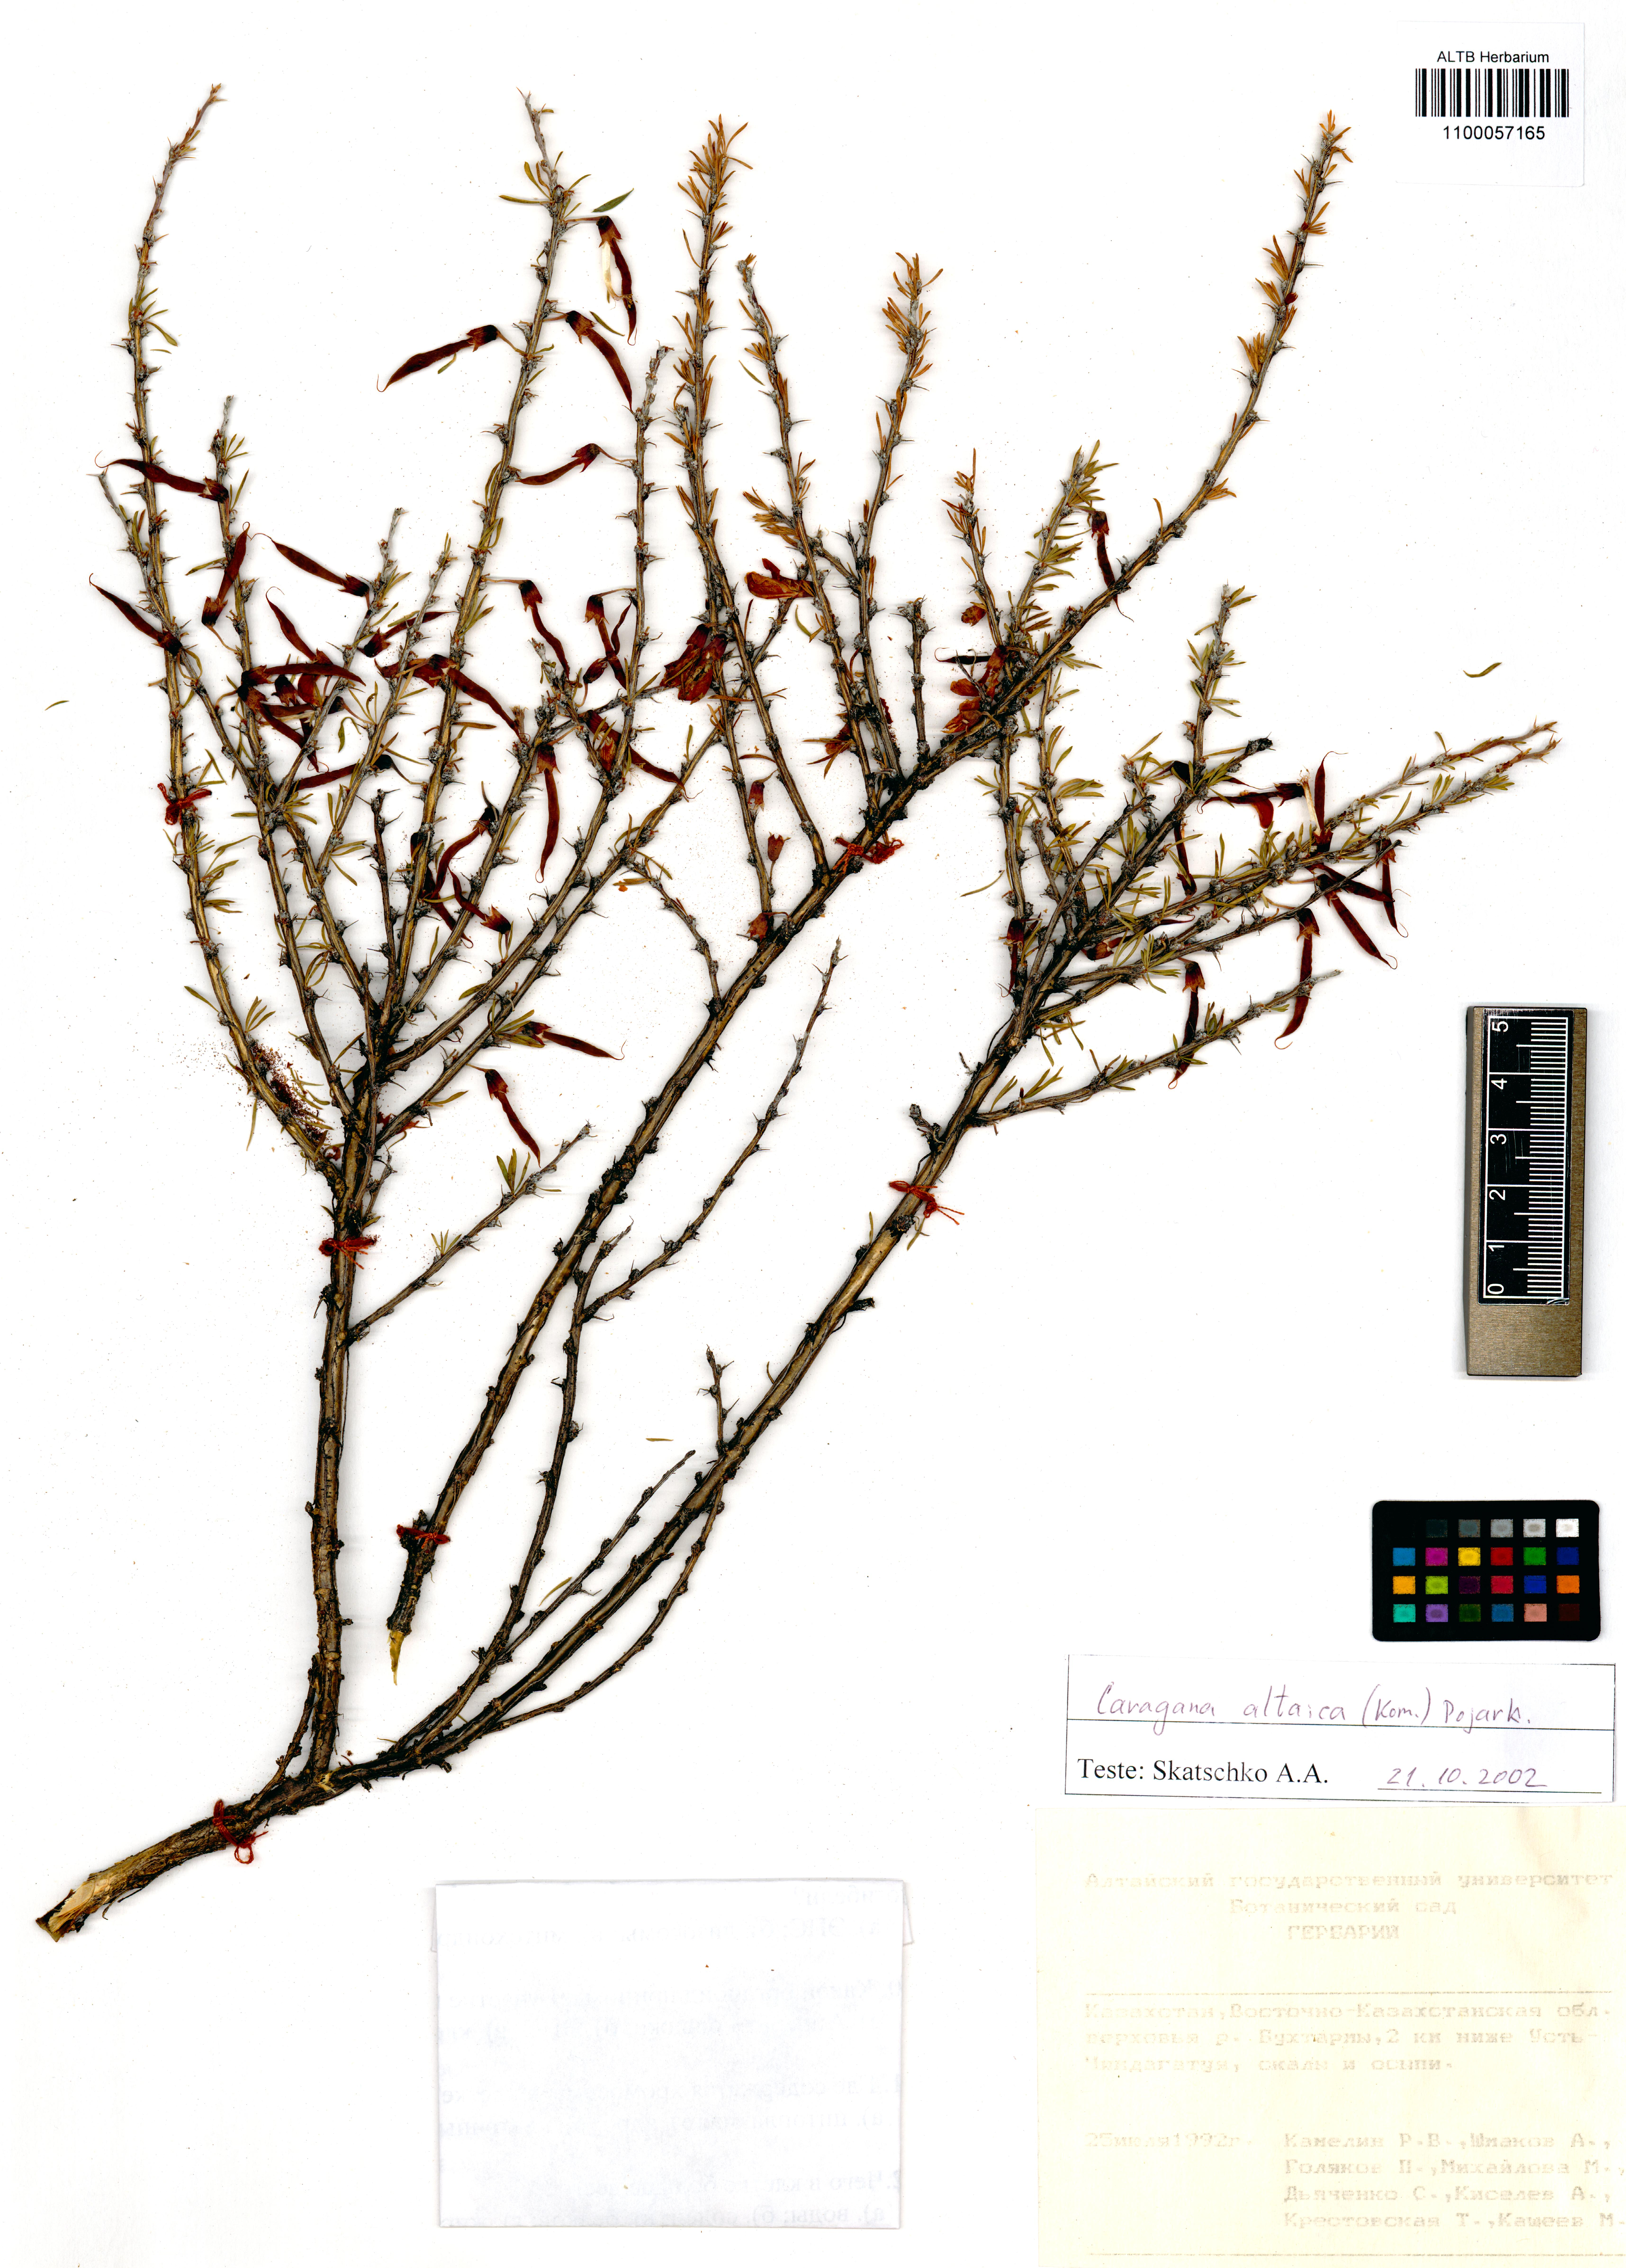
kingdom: Plantae
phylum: Tracheophyta
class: Magnoliopsida
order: Fabales
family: Fabaceae
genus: Caragana
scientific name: Caragana pygmaea
